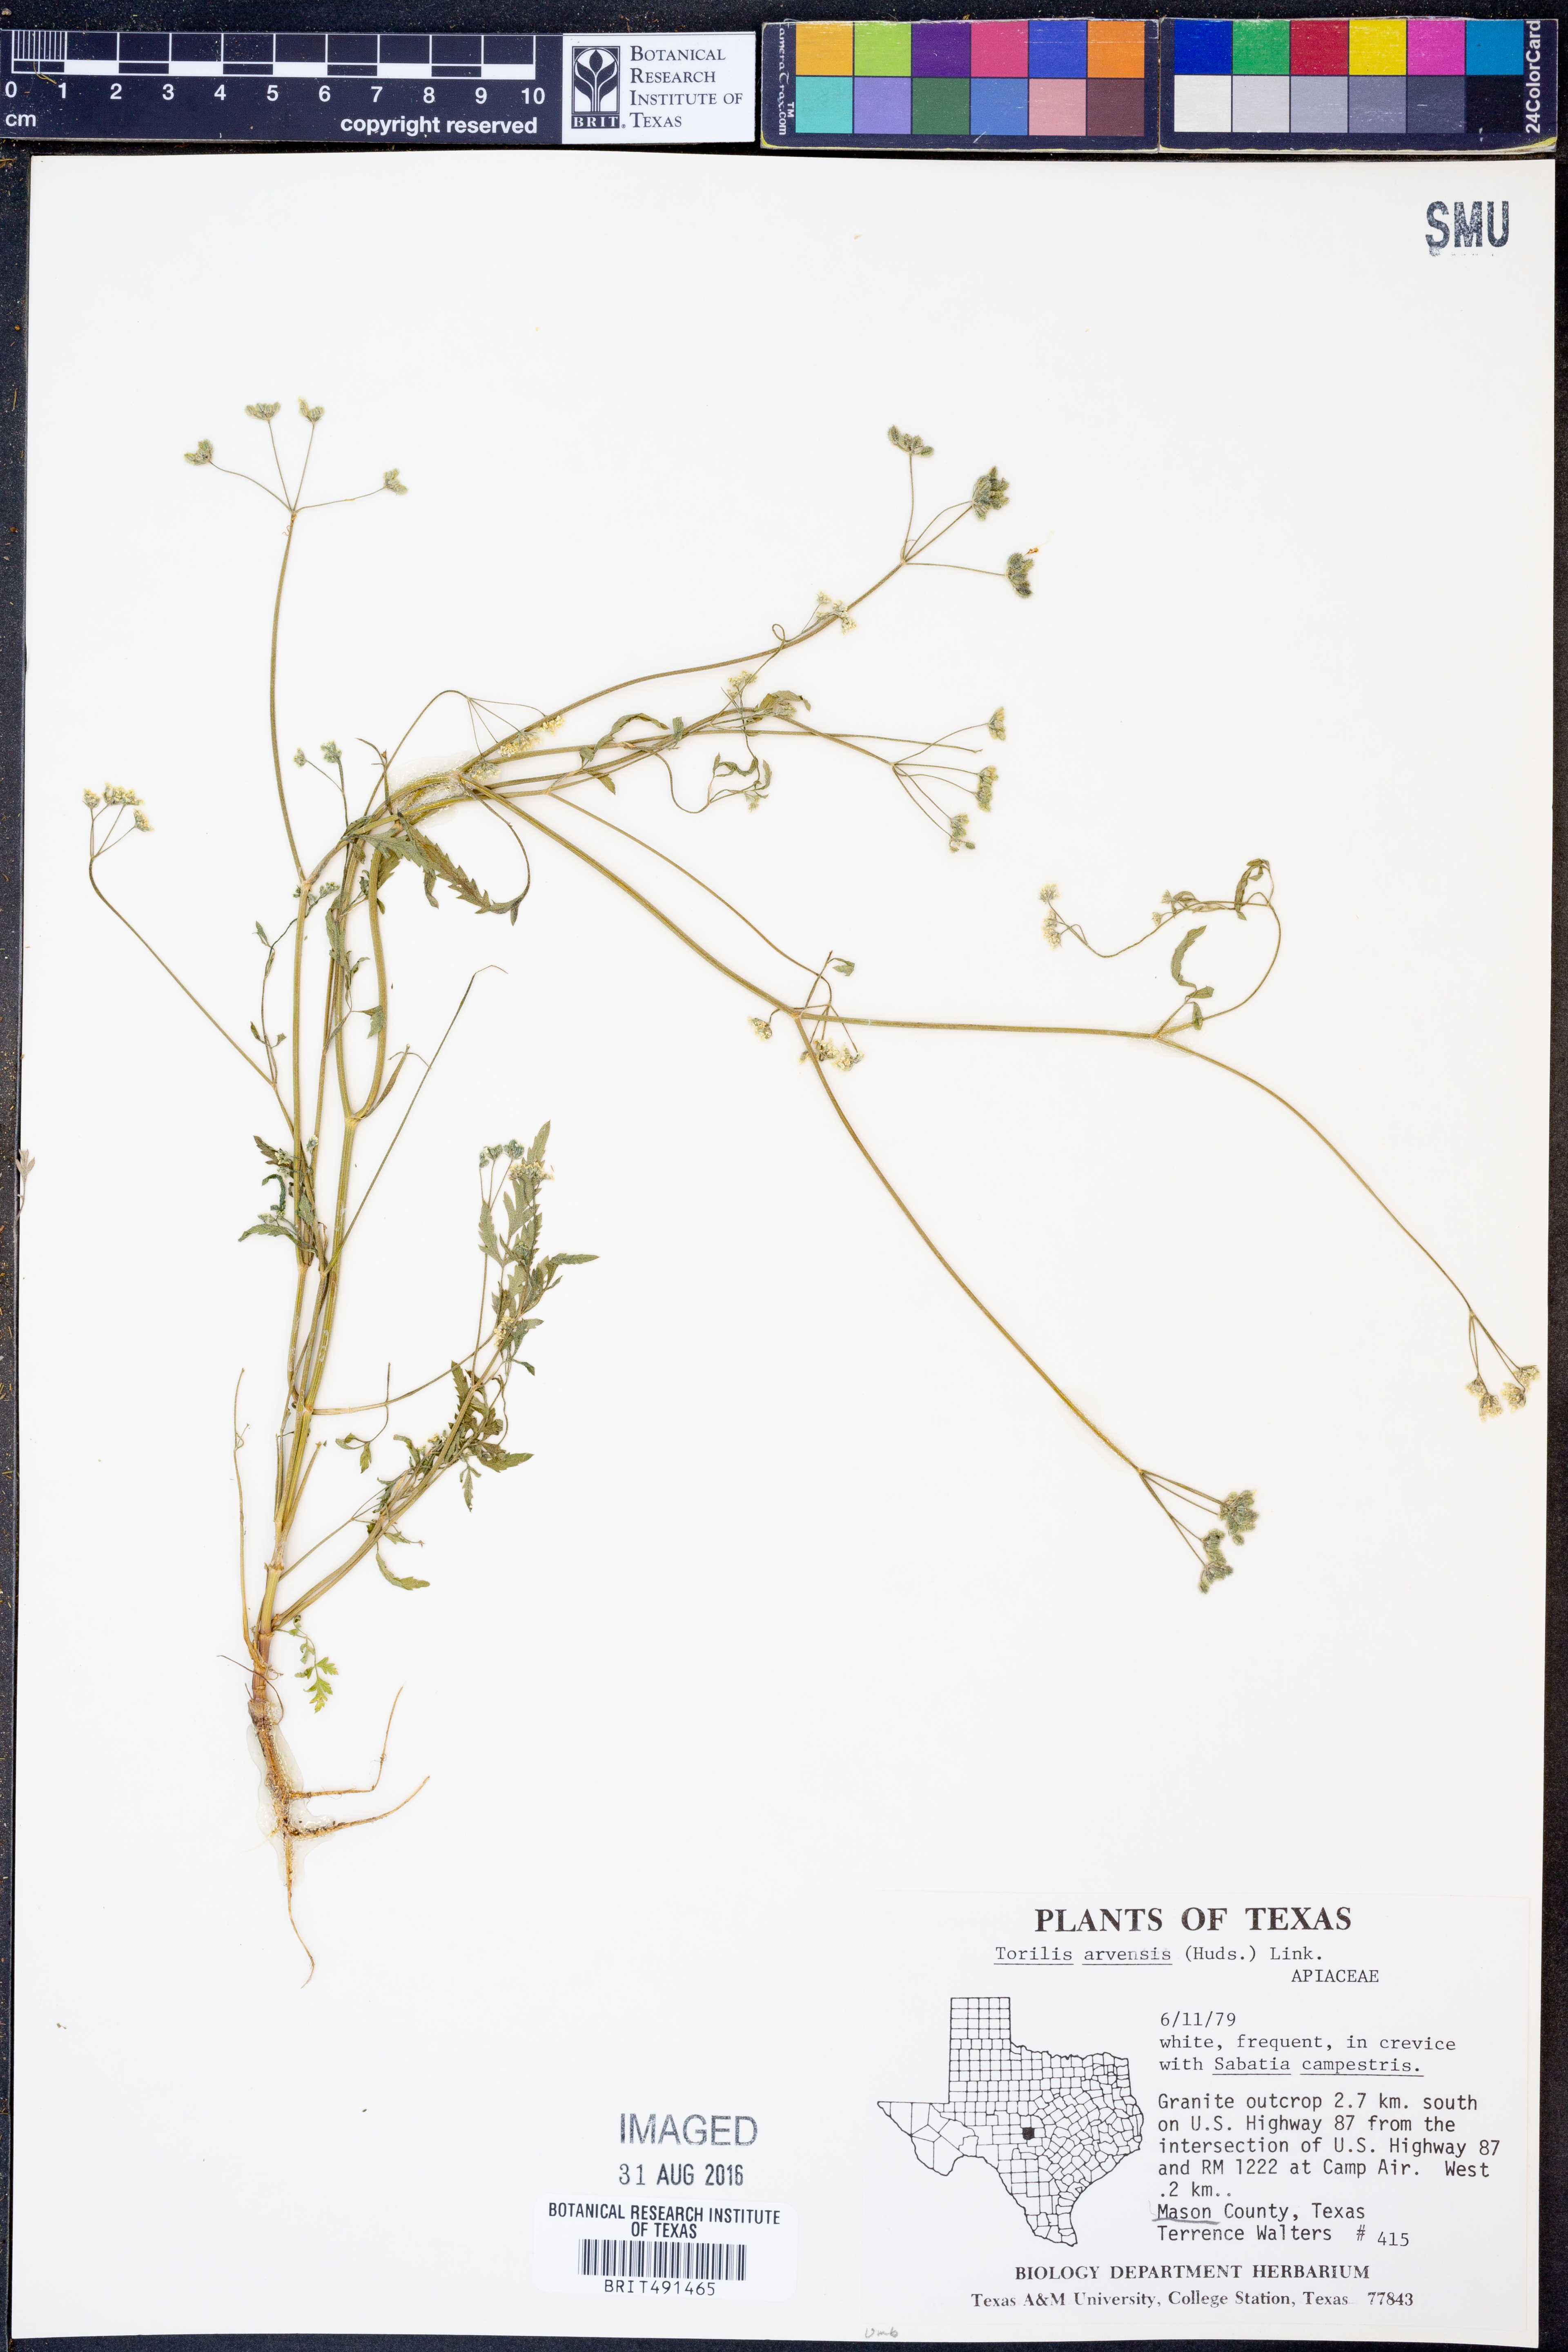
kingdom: Plantae
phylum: Tracheophyta
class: Magnoliopsida
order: Apiales
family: Apiaceae
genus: Torilis
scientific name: Torilis arvensis
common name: Spreading hedge-parsley
